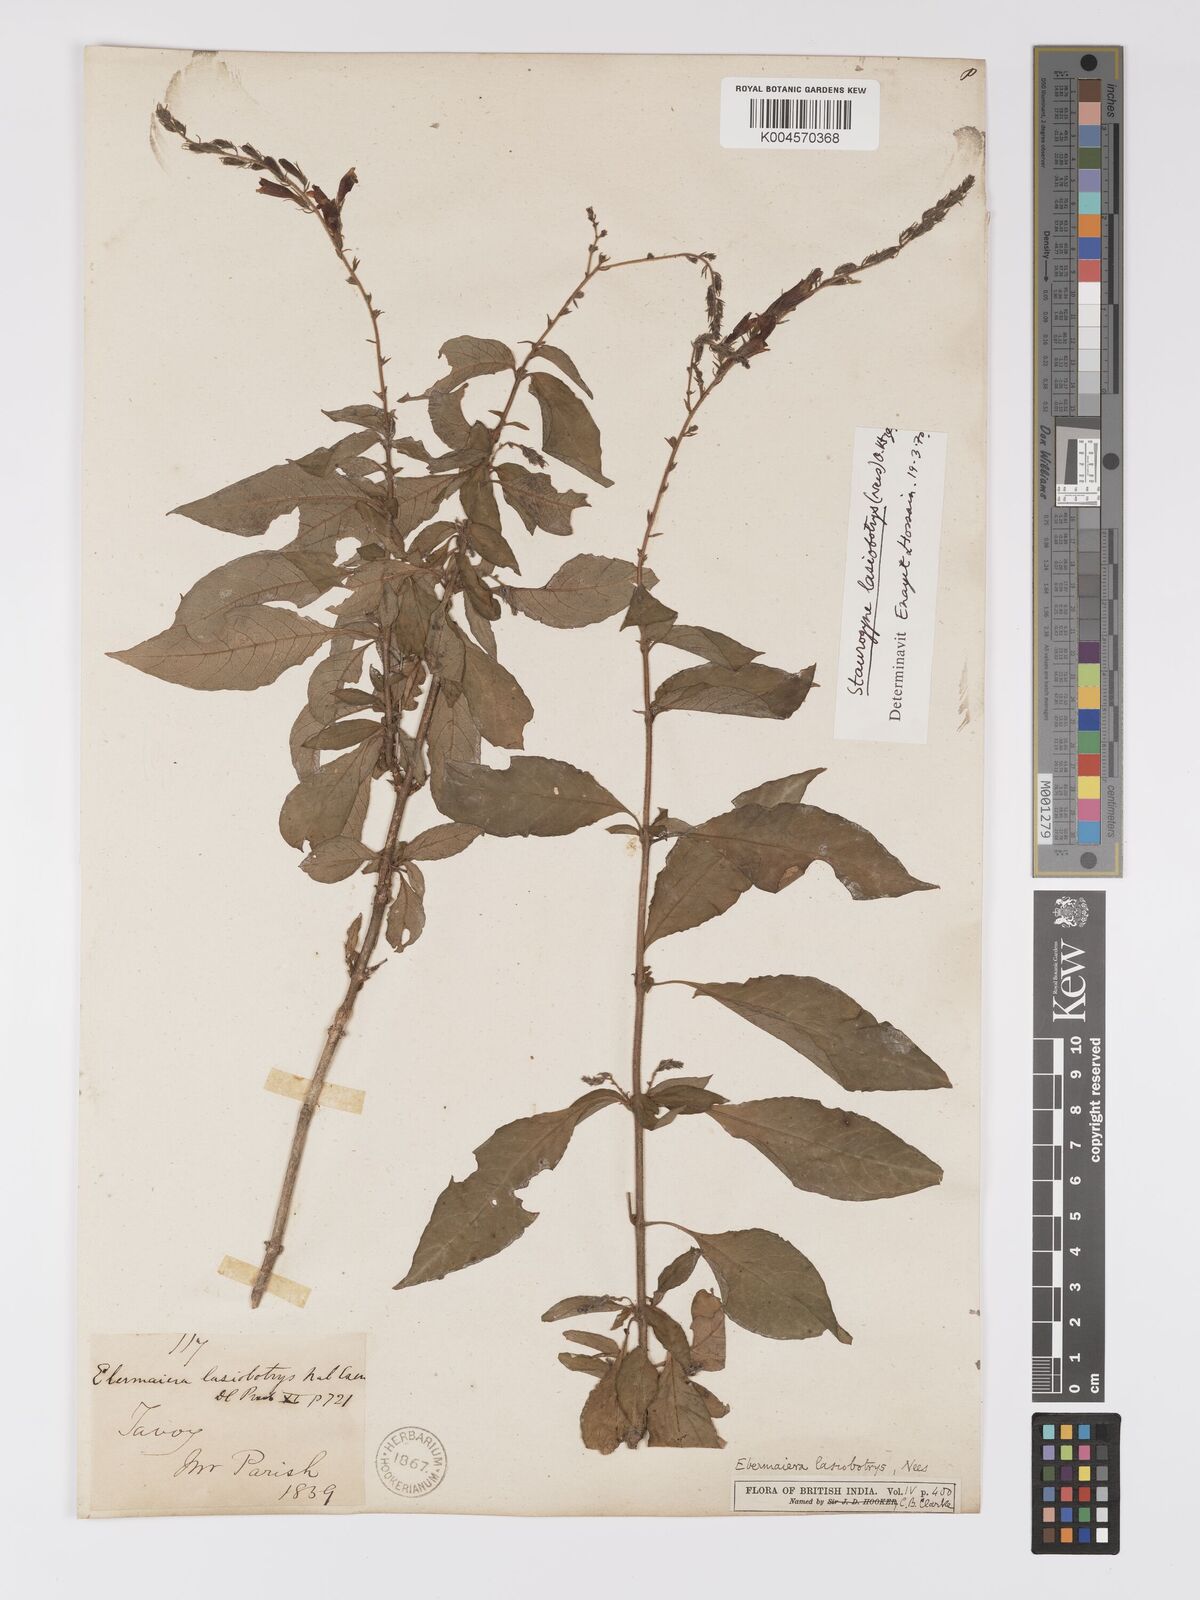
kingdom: Plantae
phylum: Tracheophyta
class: Magnoliopsida
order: Lamiales
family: Acanthaceae
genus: Staurogyne
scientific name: Staurogyne lasiobotrys
